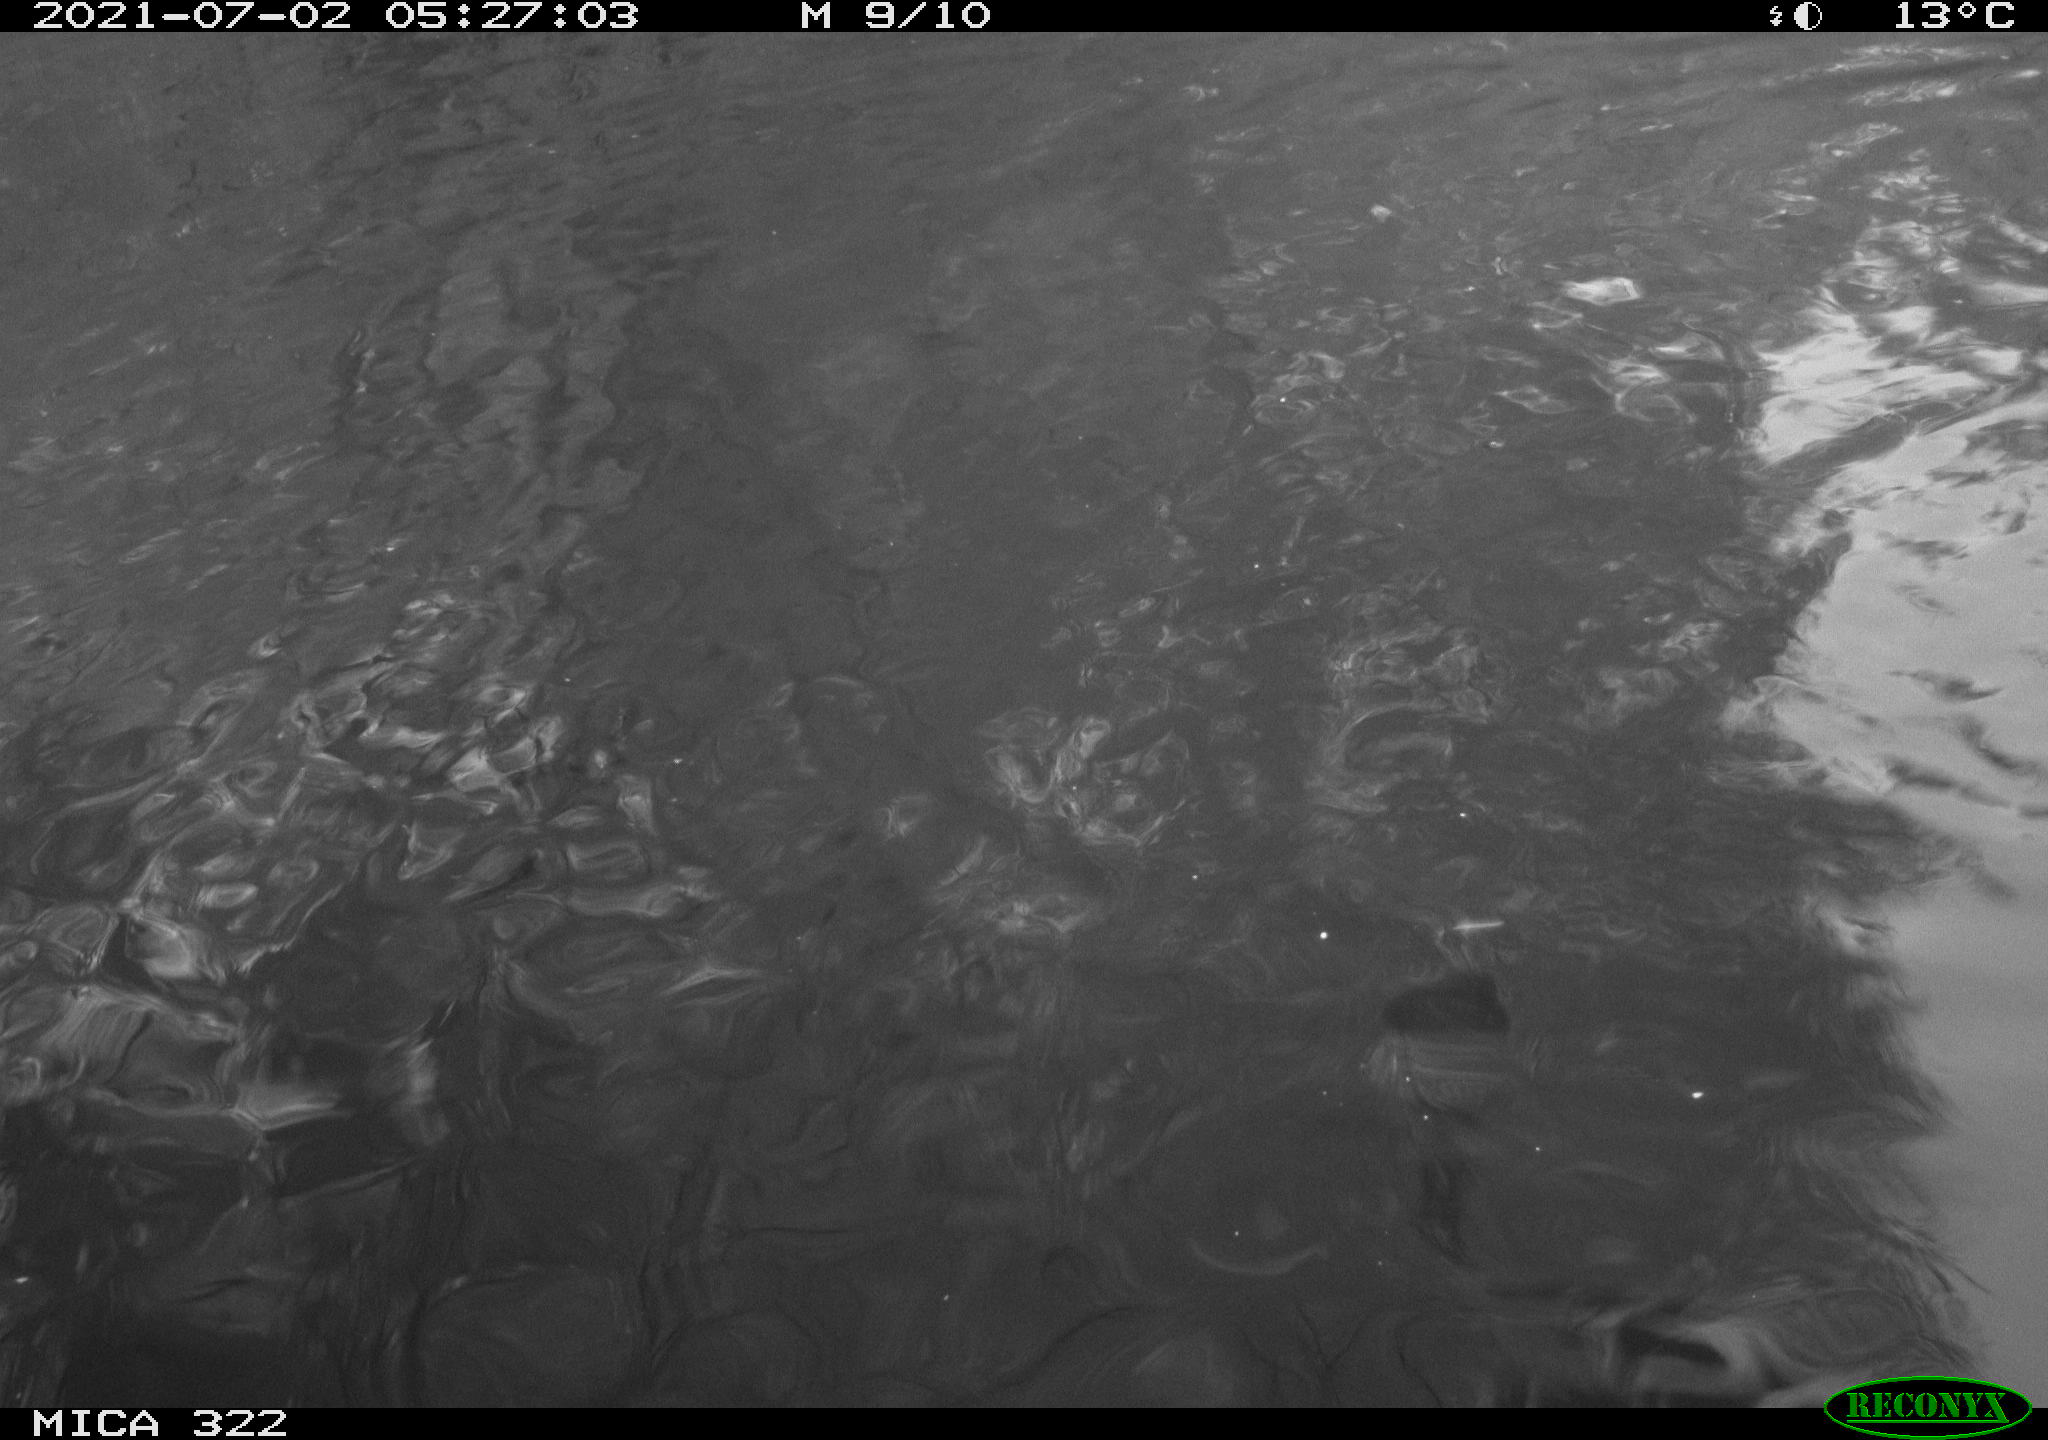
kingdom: Animalia
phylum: Chordata
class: Aves
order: Anseriformes
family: Anatidae
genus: Mareca
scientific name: Mareca strepera
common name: Gadwall
